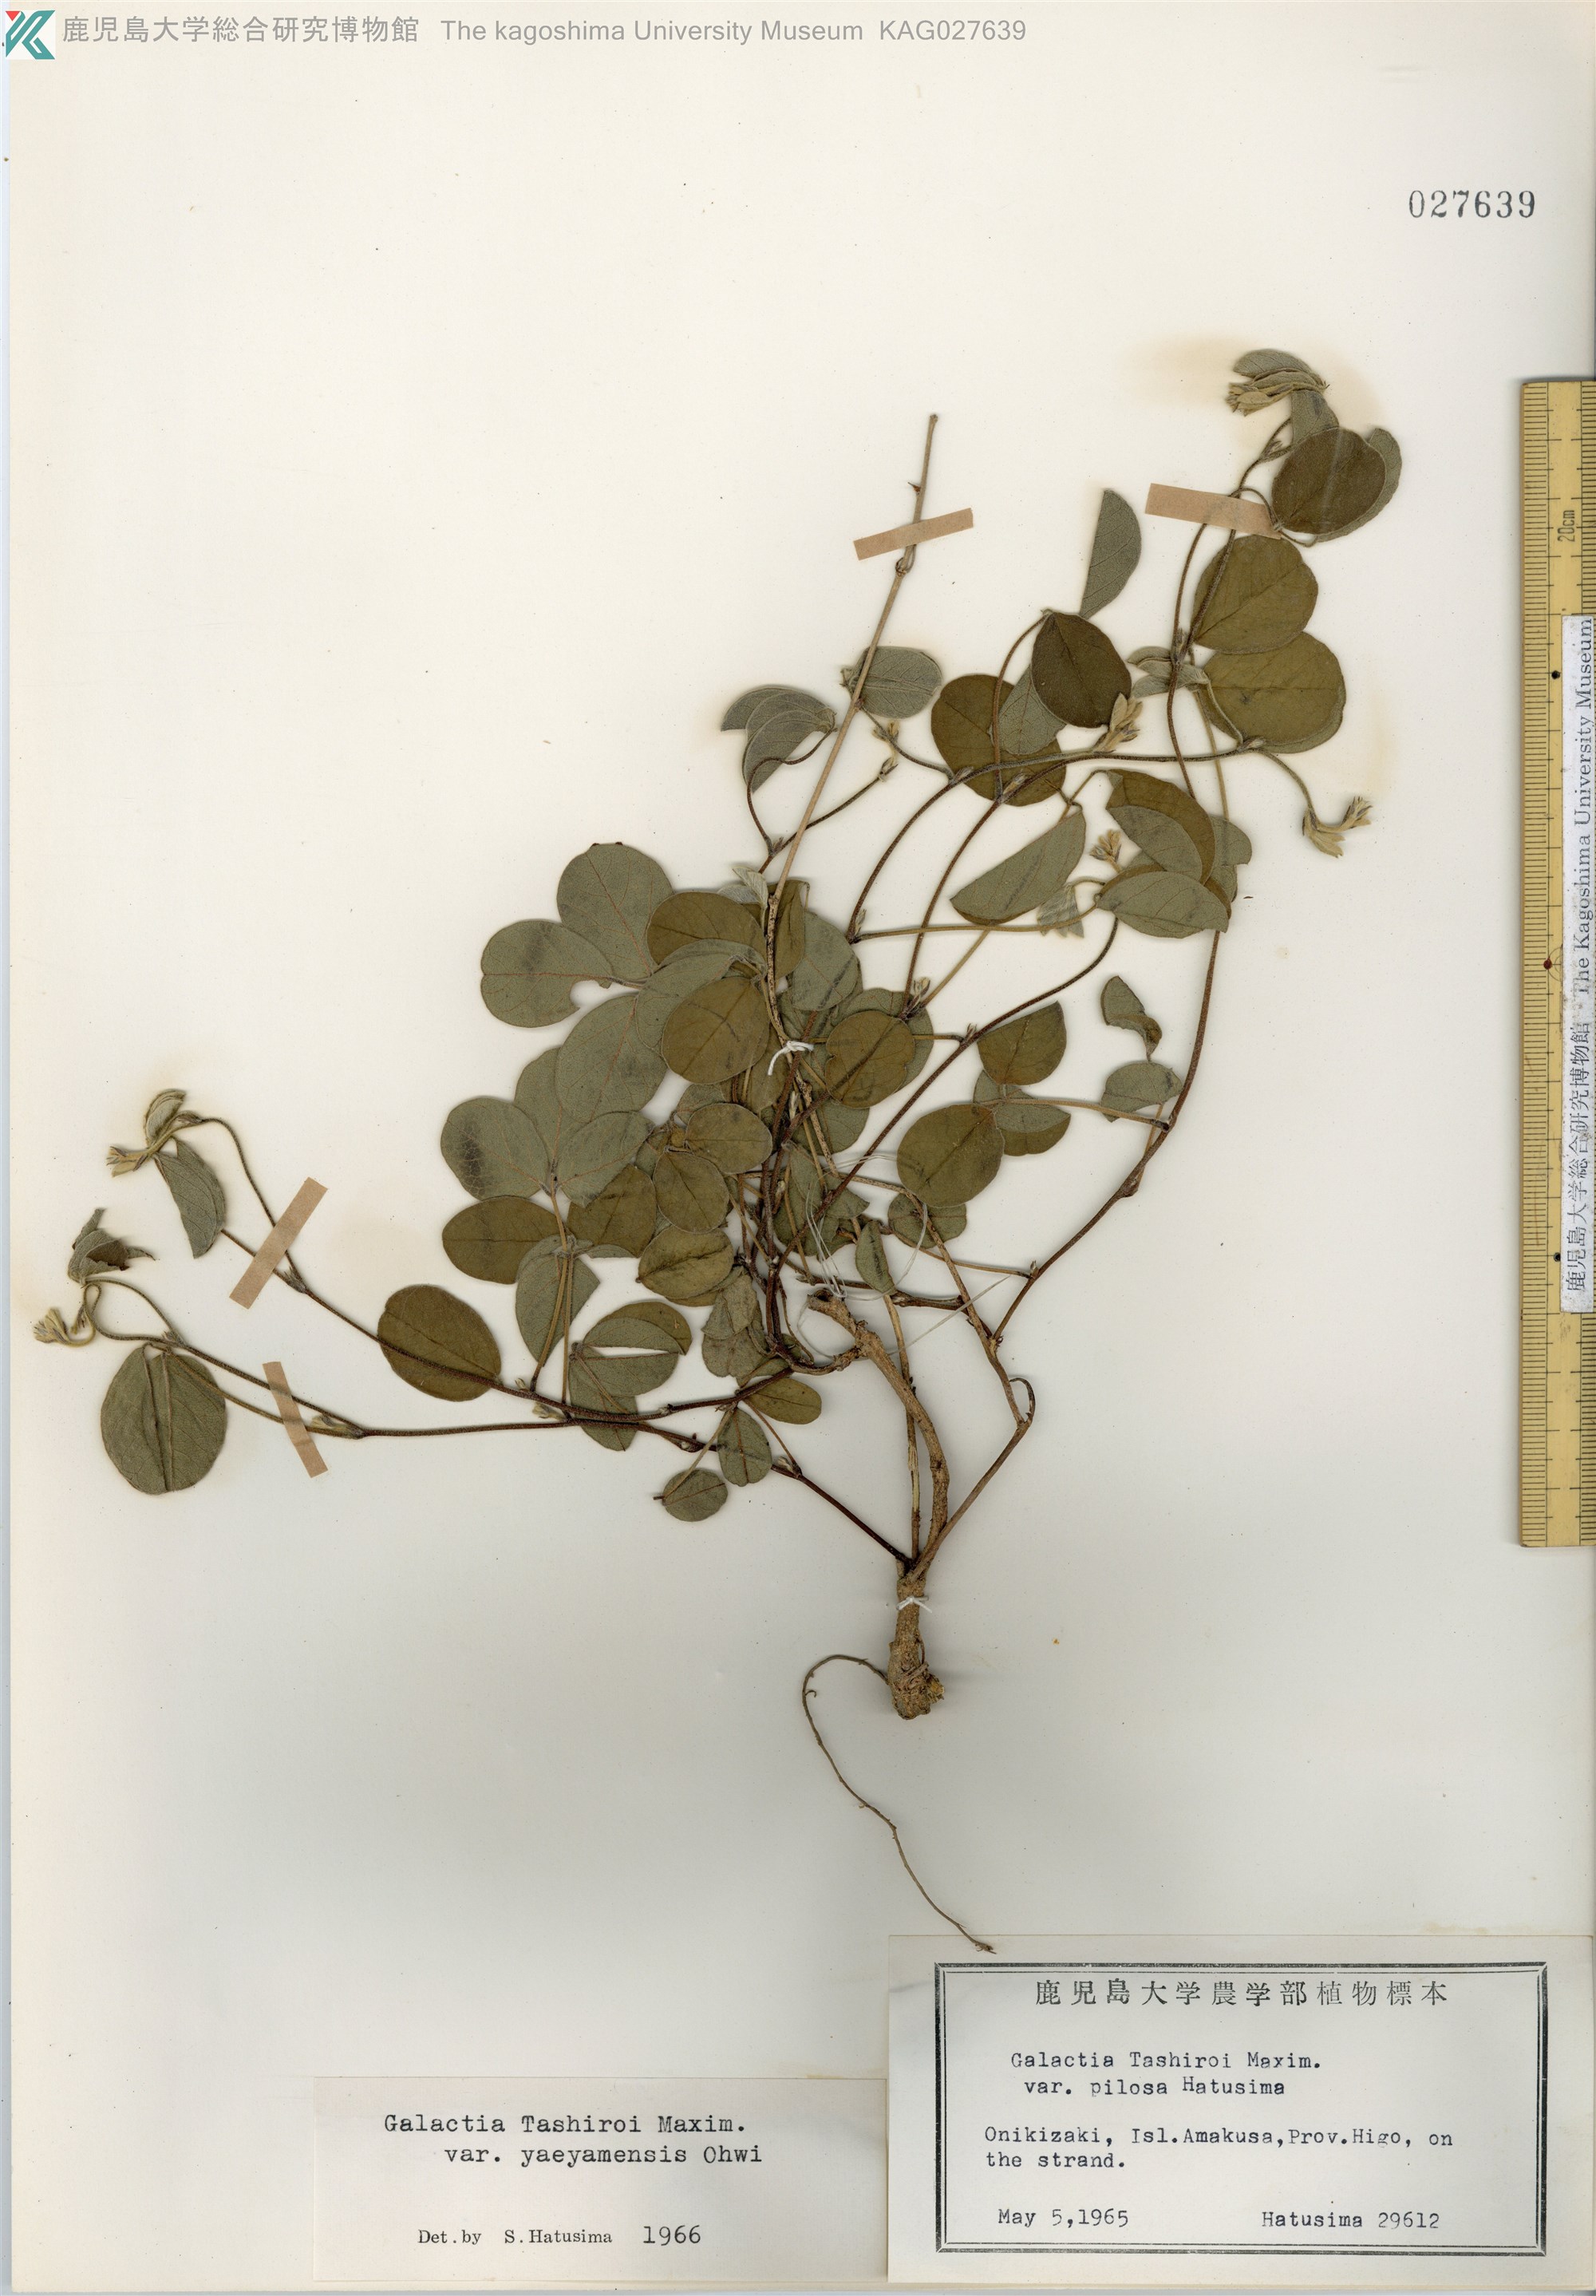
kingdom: Plantae
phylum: Tracheophyta
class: Magnoliopsida
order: Fabales
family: Fabaceae
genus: Galactia
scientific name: Galactia tashiroi
